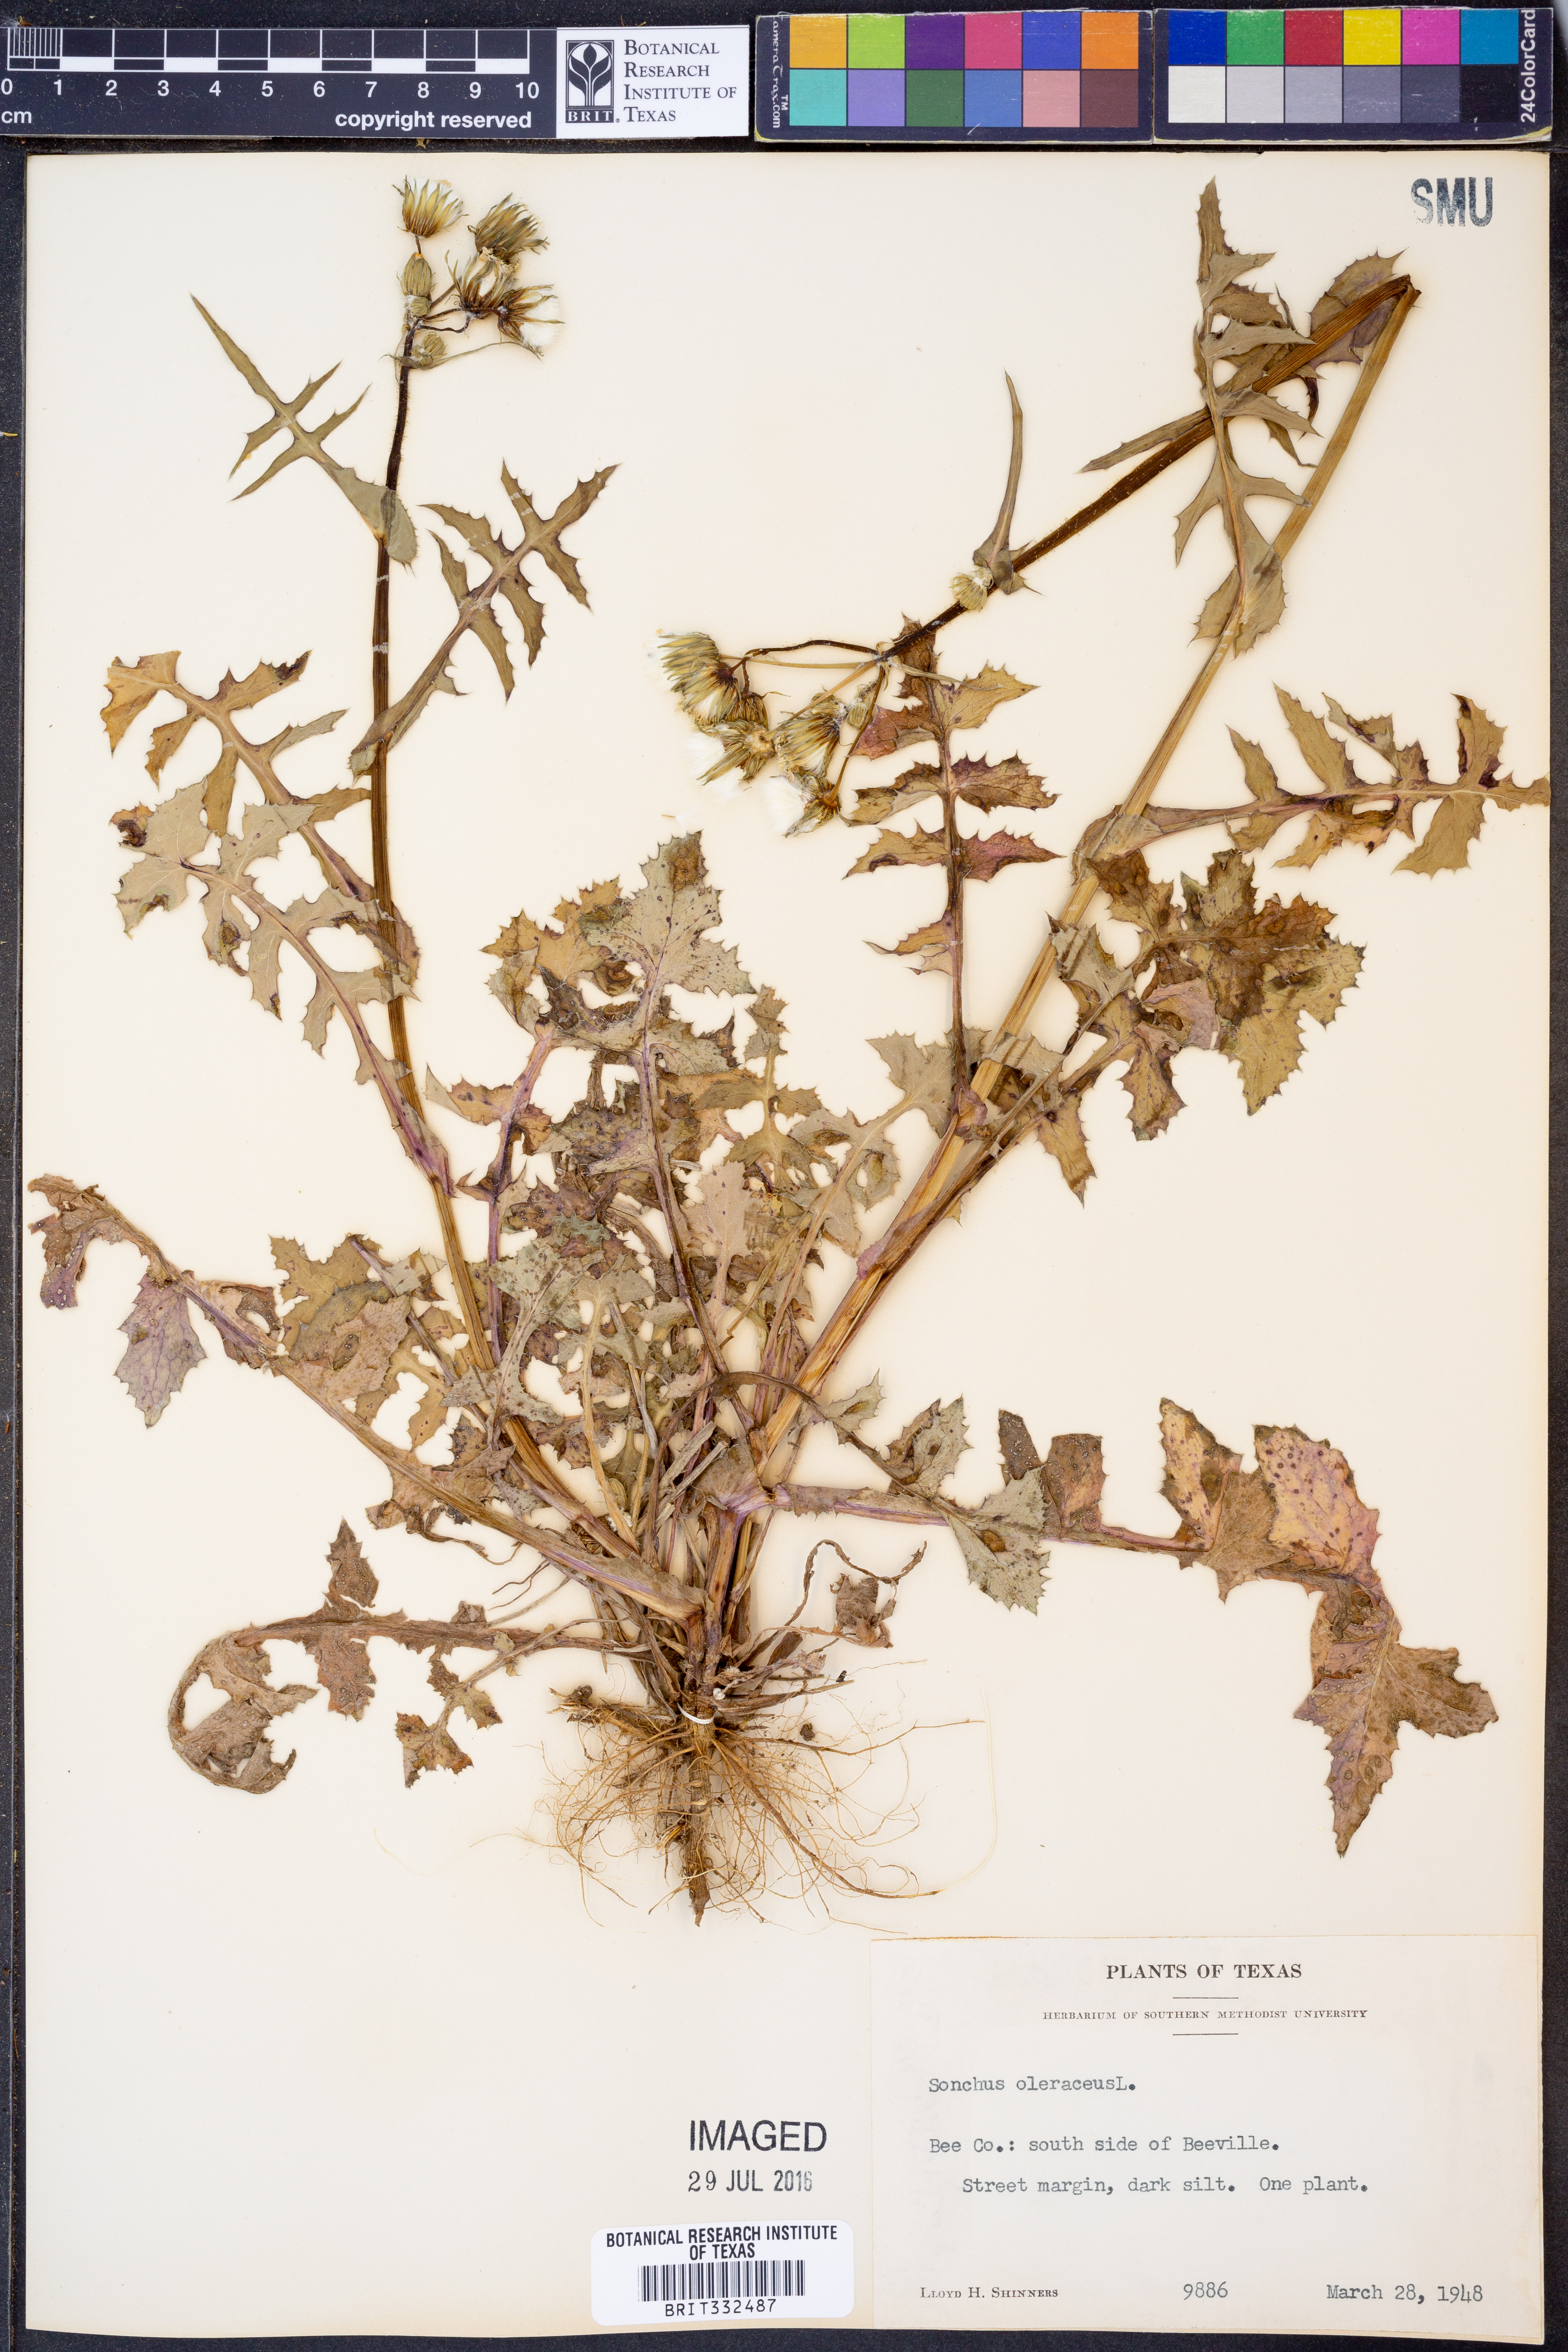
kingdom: Plantae
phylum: Tracheophyta
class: Magnoliopsida
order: Asterales
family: Asteraceae
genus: Sonchus
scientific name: Sonchus oleraceus
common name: Common sowthistle
